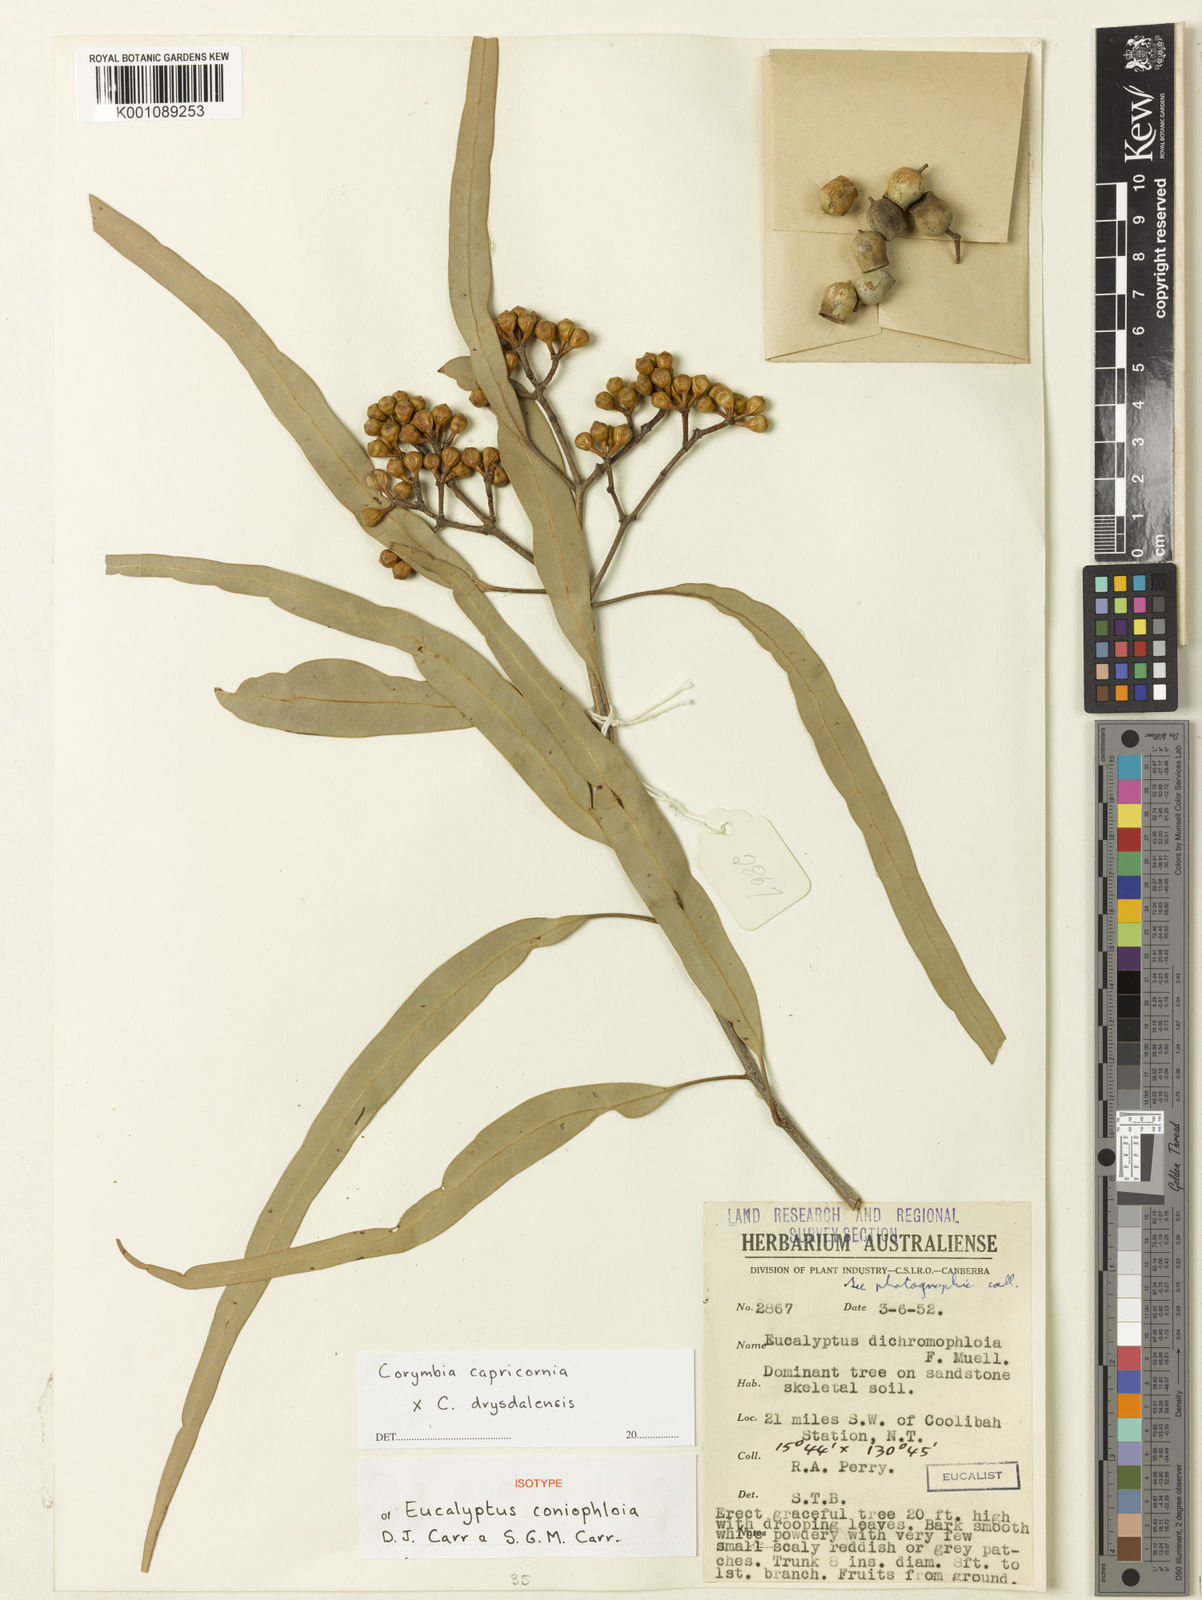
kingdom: Plantae
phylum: Tracheophyta
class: Magnoliopsida
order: Myrtales
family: Myrtaceae
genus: Corymbia
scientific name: Corymbia dichromophloia
